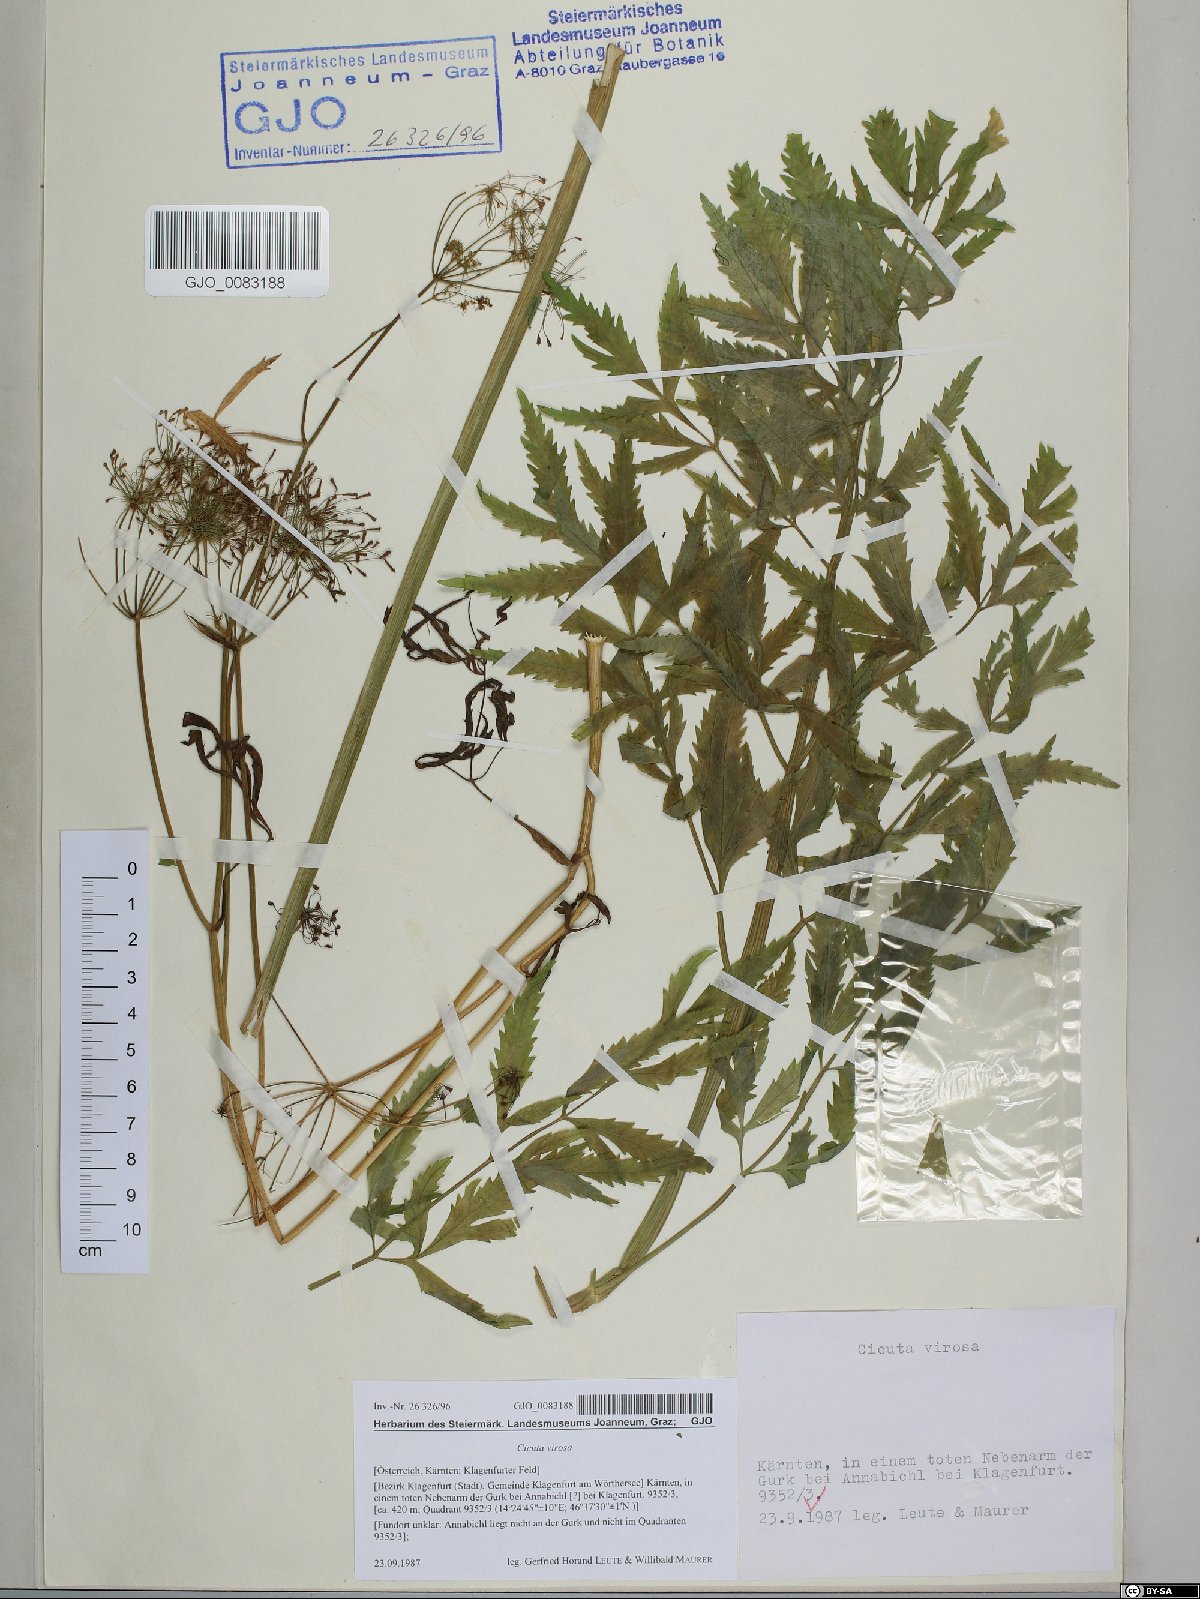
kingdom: Plantae
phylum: Tracheophyta
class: Magnoliopsida
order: Apiales
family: Apiaceae
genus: Cicuta
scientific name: Cicuta virosa
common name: Cowbane
